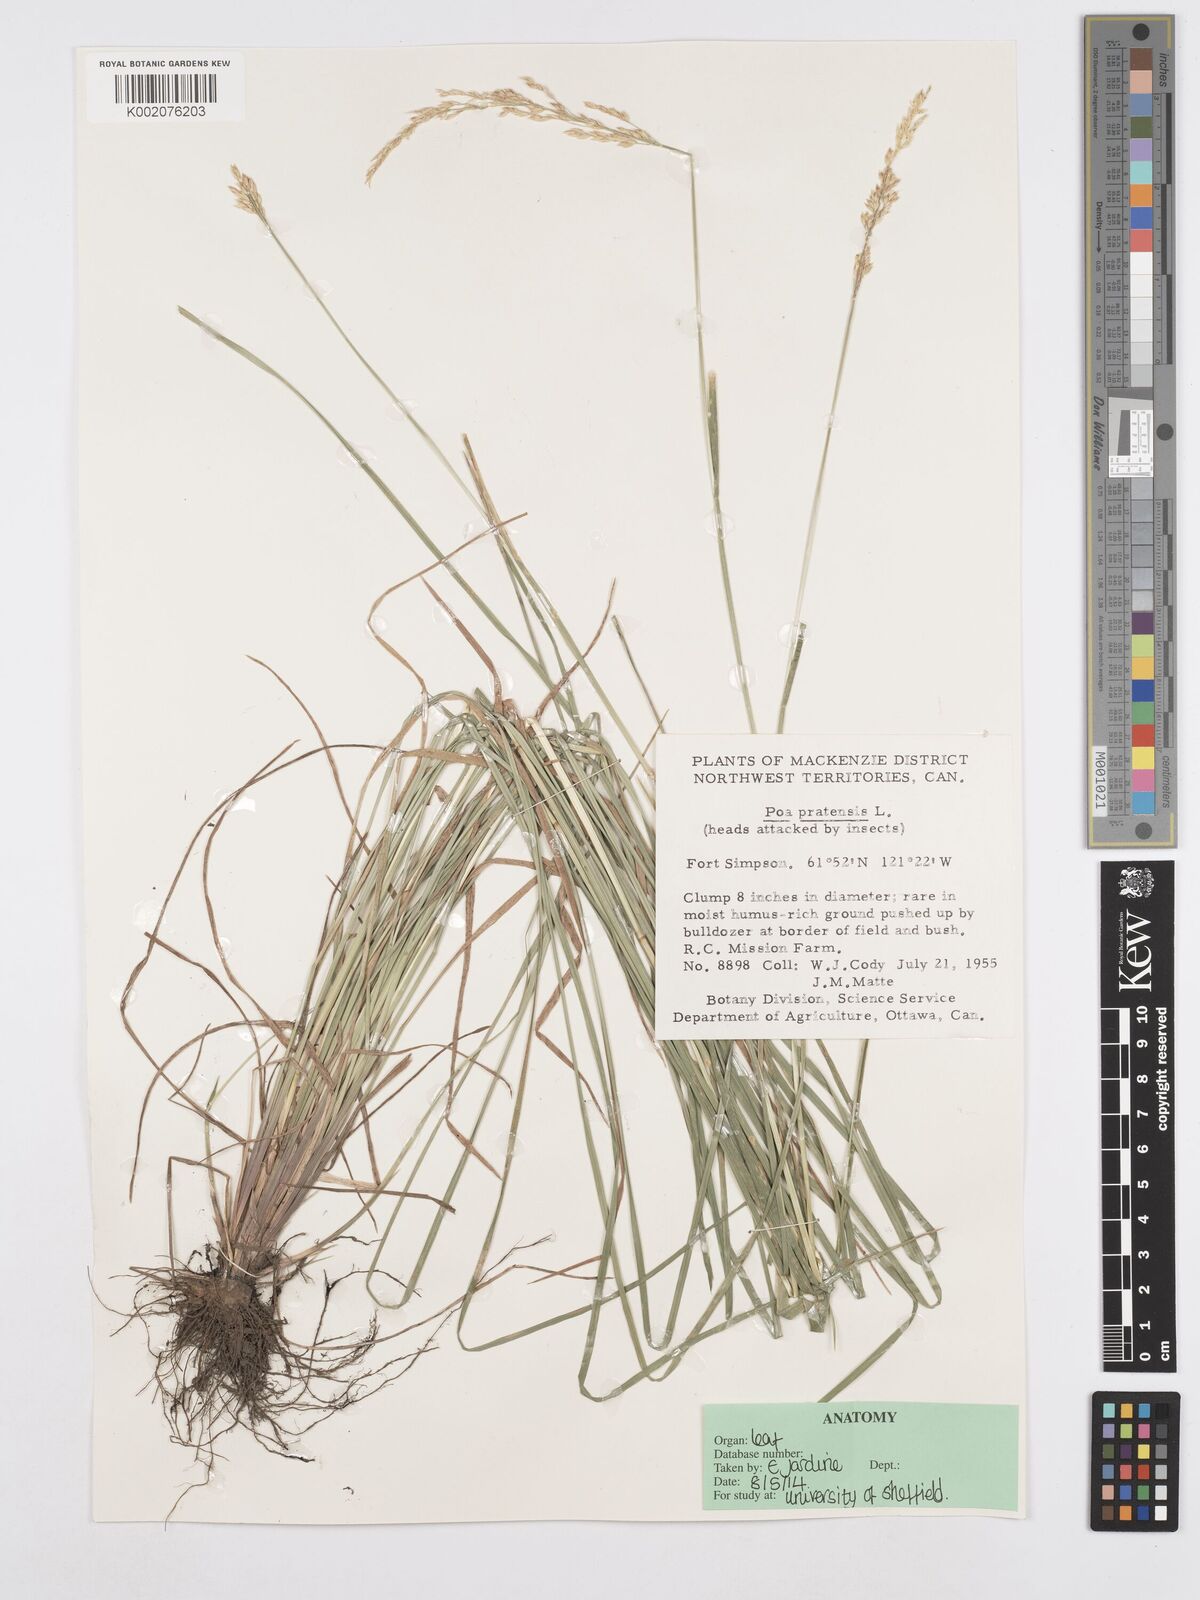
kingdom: Plantae
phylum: Tracheophyta
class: Liliopsida
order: Poales
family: Poaceae
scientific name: Poaceae
